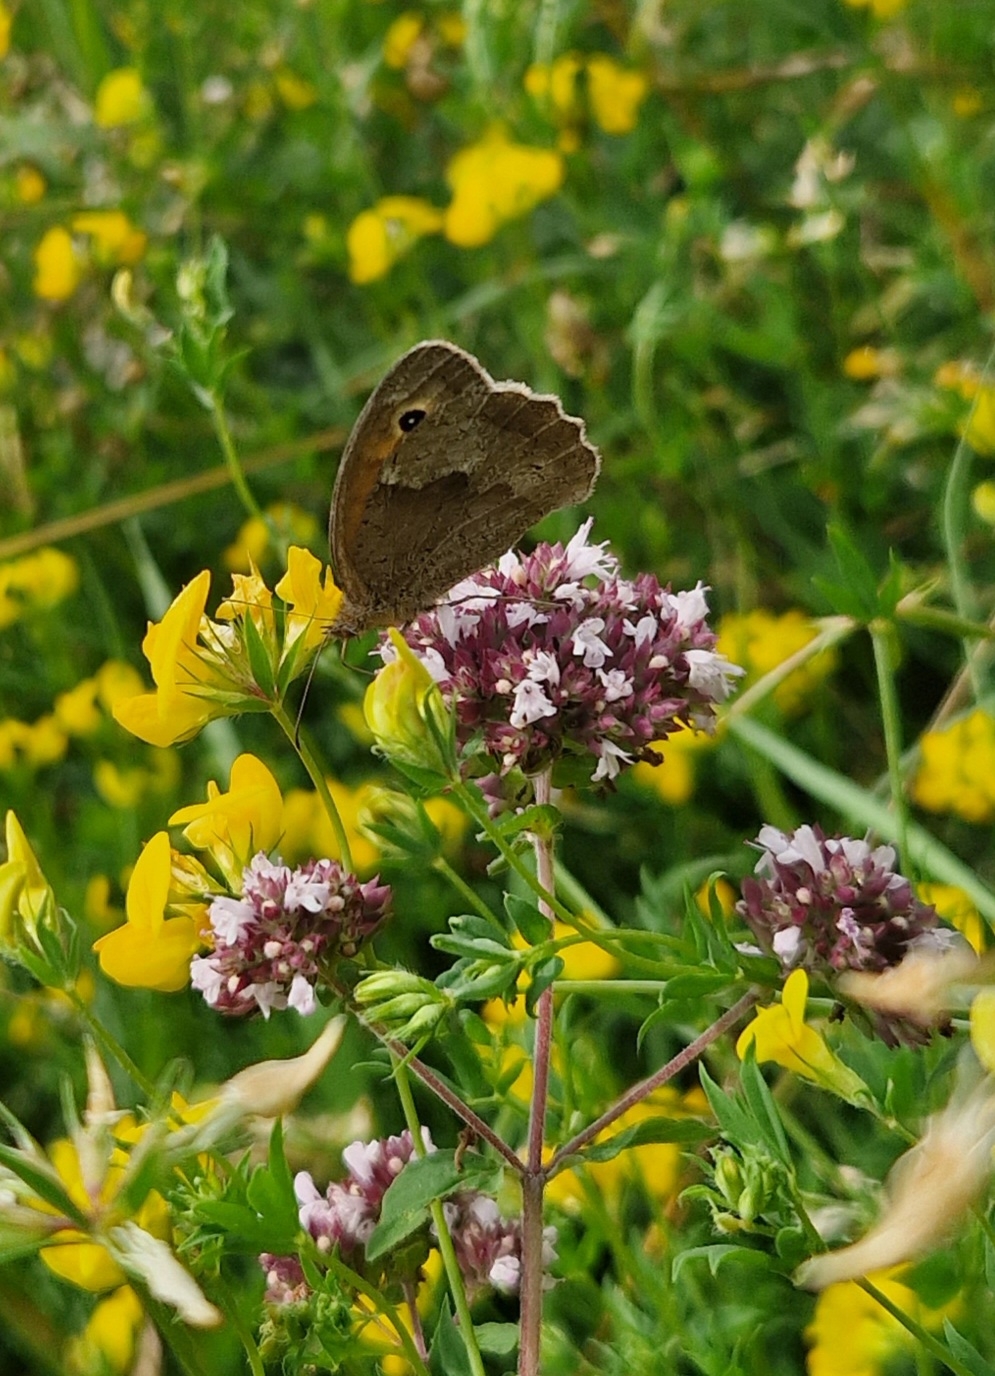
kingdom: Animalia
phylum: Arthropoda
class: Insecta
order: Lepidoptera
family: Nymphalidae
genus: Maniola
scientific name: Maniola jurtina
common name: Græsrandøje
